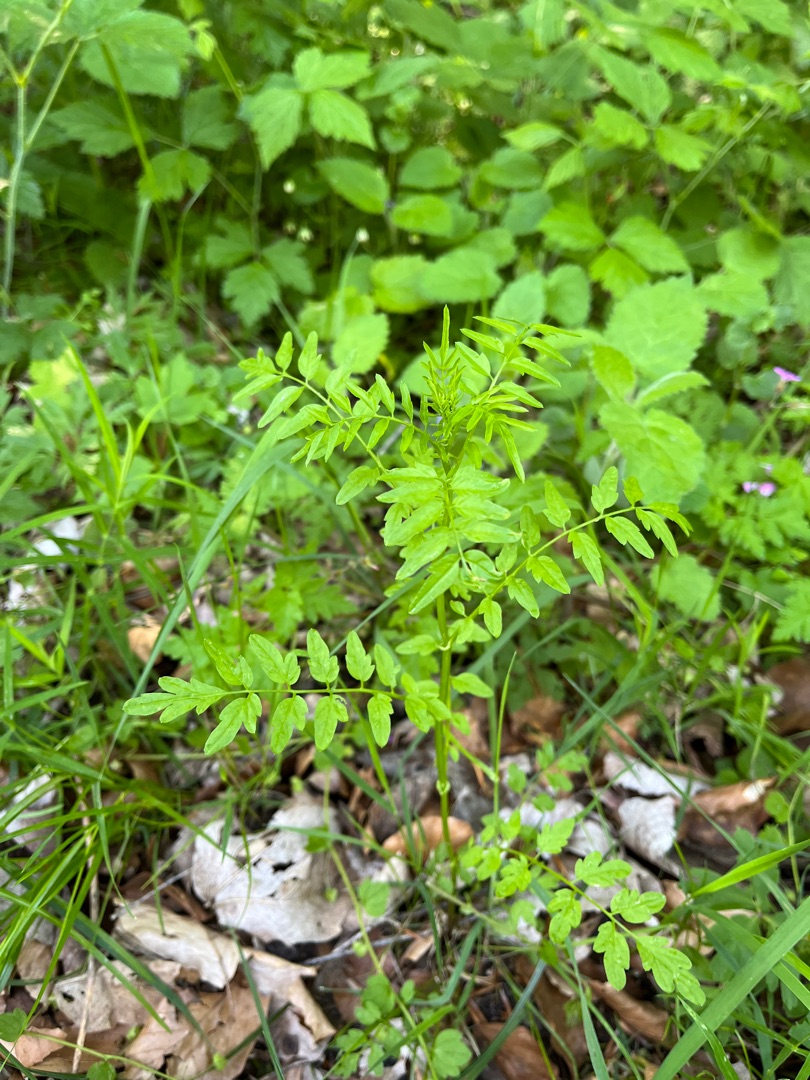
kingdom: Plantae
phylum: Tracheophyta
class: Magnoliopsida
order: Brassicales
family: Brassicaceae
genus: Cardamine
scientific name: Cardamine impatiens
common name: Kronløs springklap
